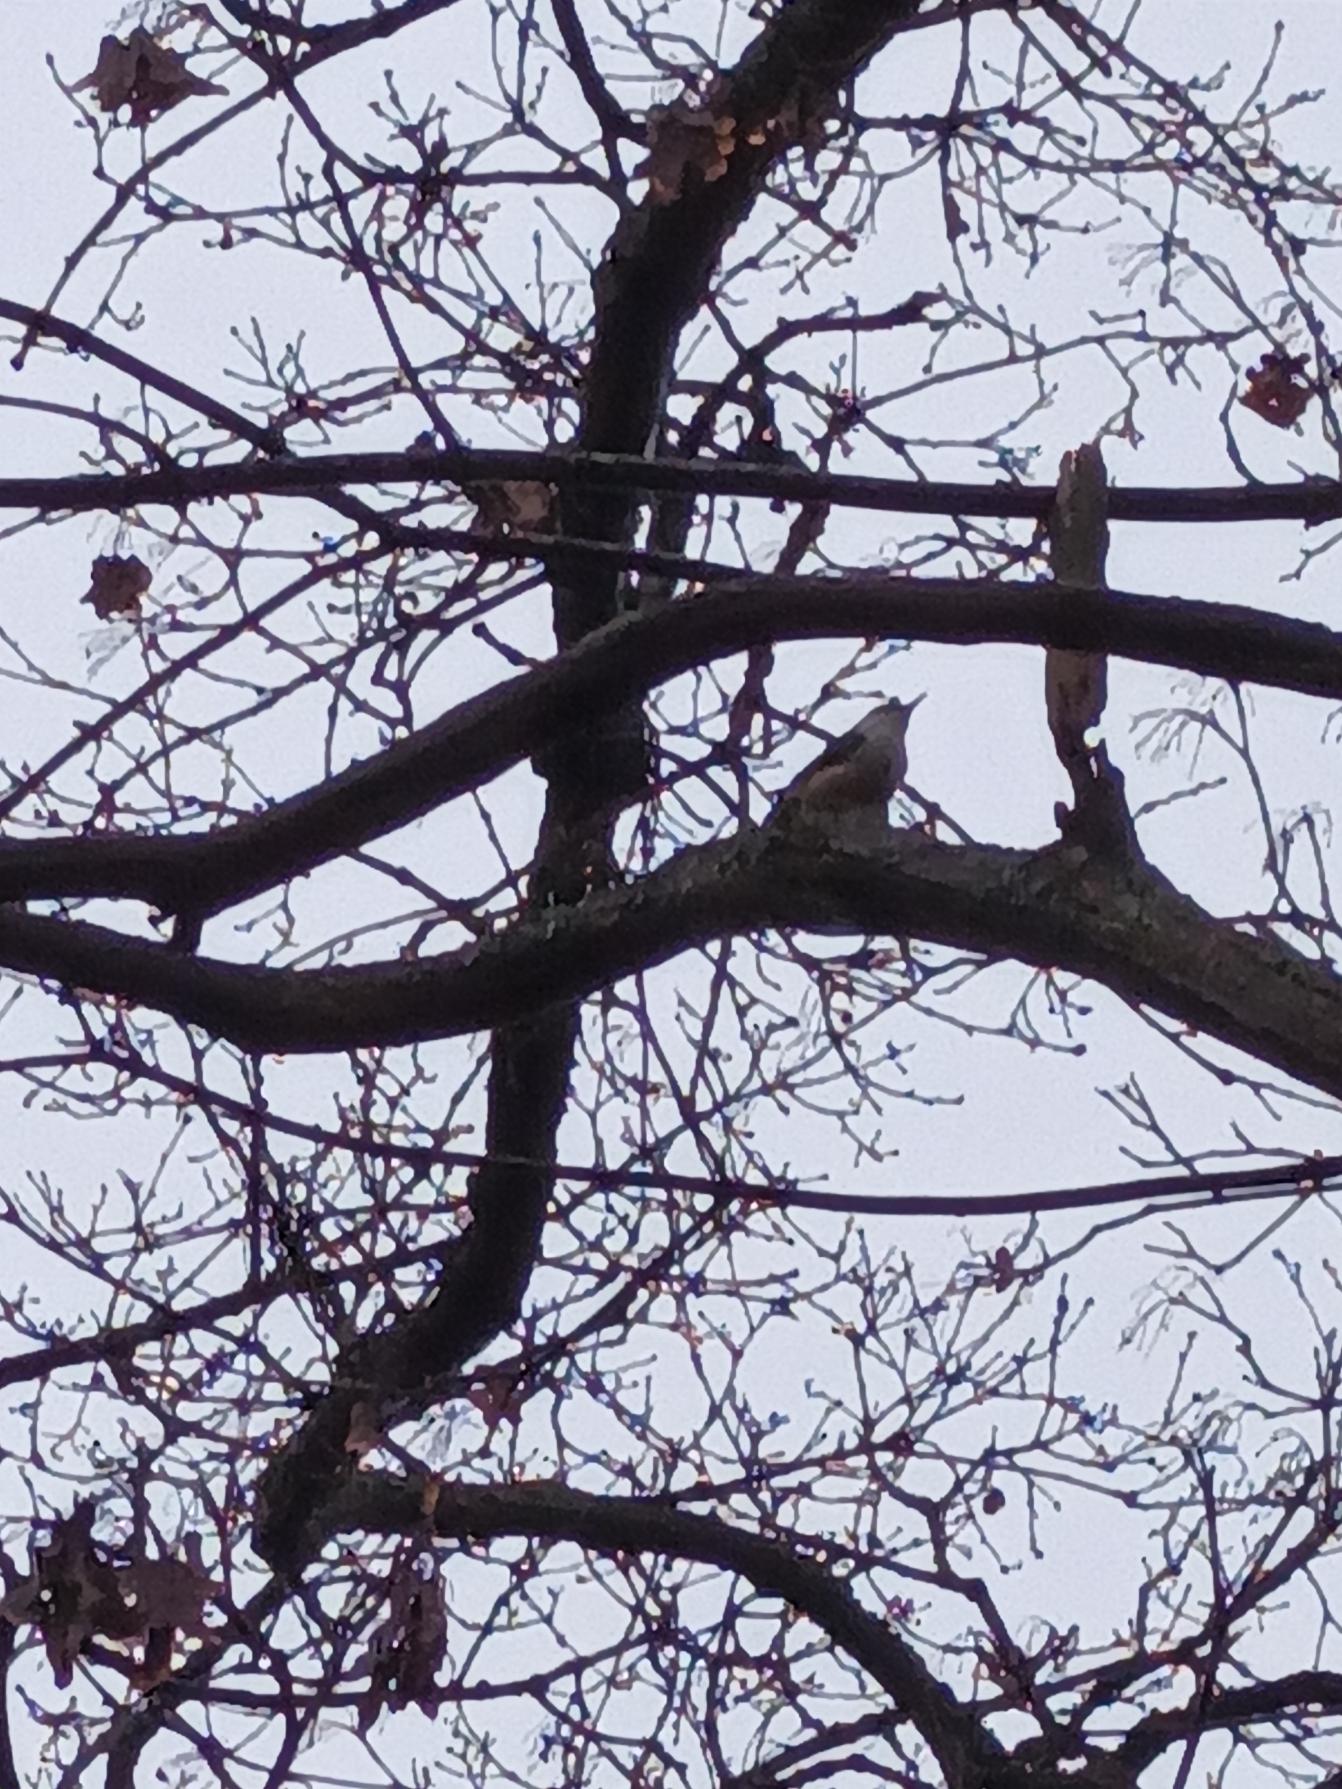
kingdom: Animalia
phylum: Chordata
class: Aves
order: Passeriformes
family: Sittidae
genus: Sitta
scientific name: Sitta europaea
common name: Spætmejse
